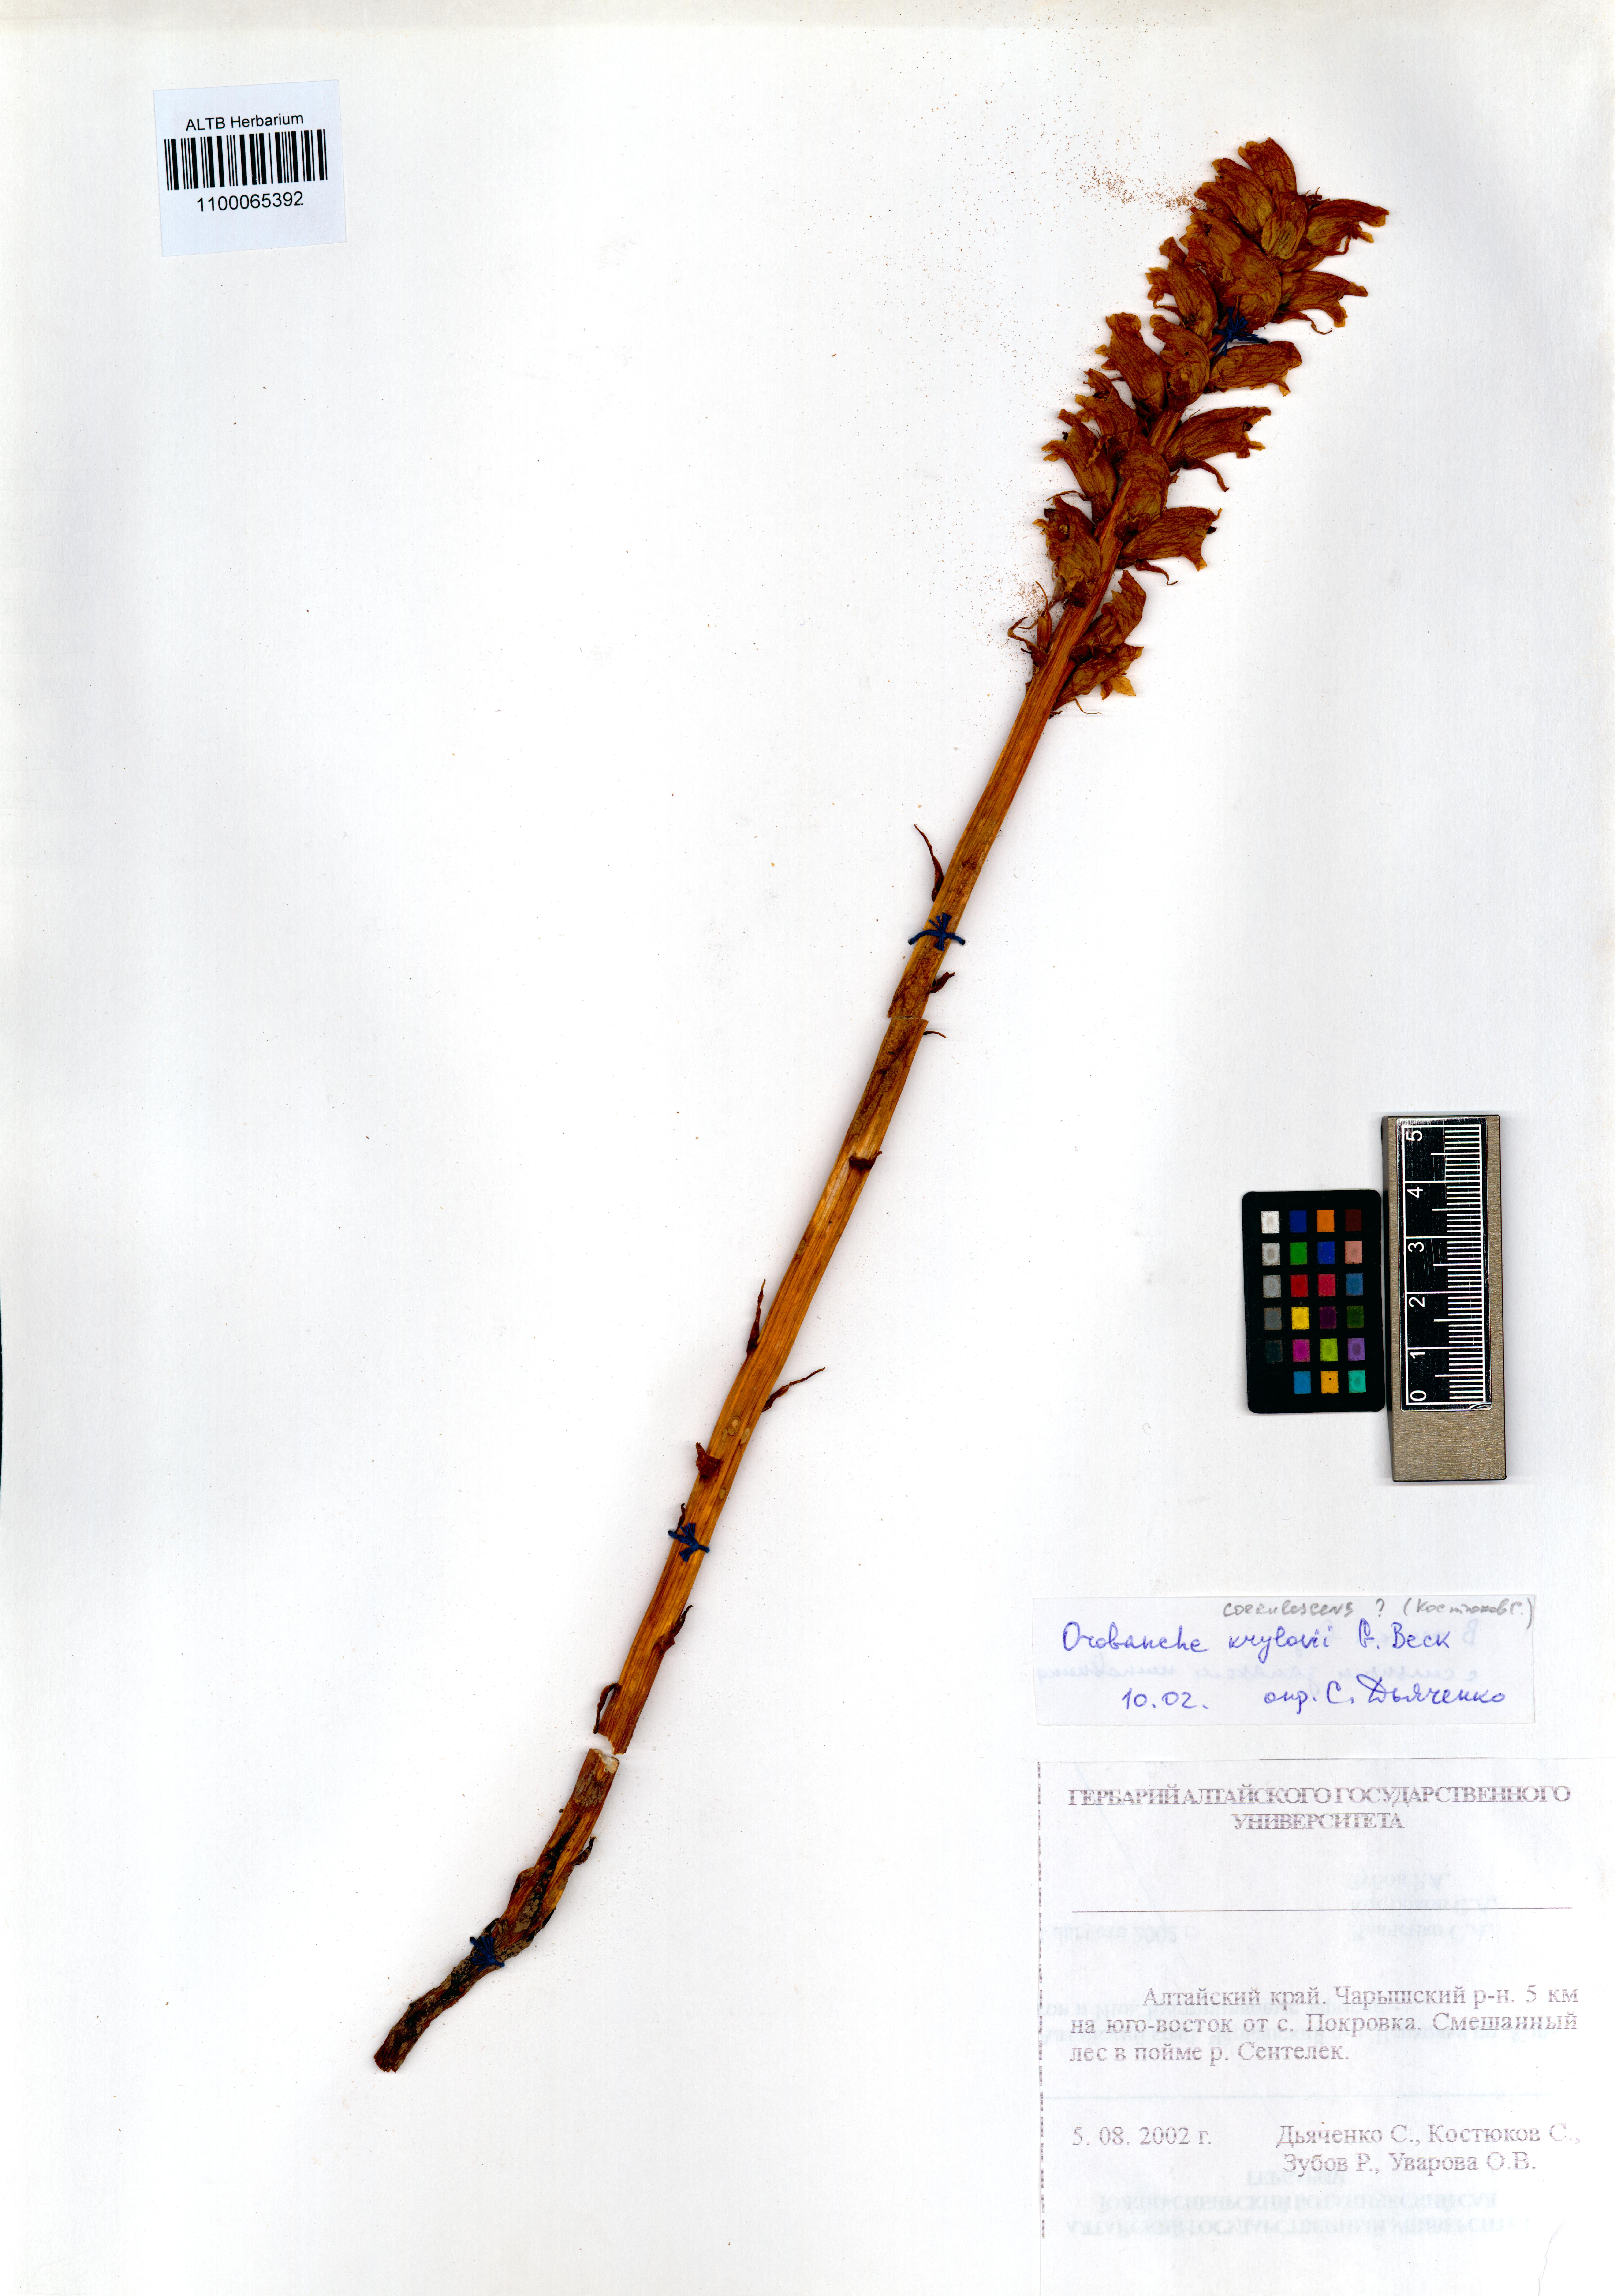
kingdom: Plantae
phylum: Tracheophyta
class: Magnoliopsida
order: Lamiales
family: Orobanchaceae
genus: Orobanche
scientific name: Orobanche krylowii
